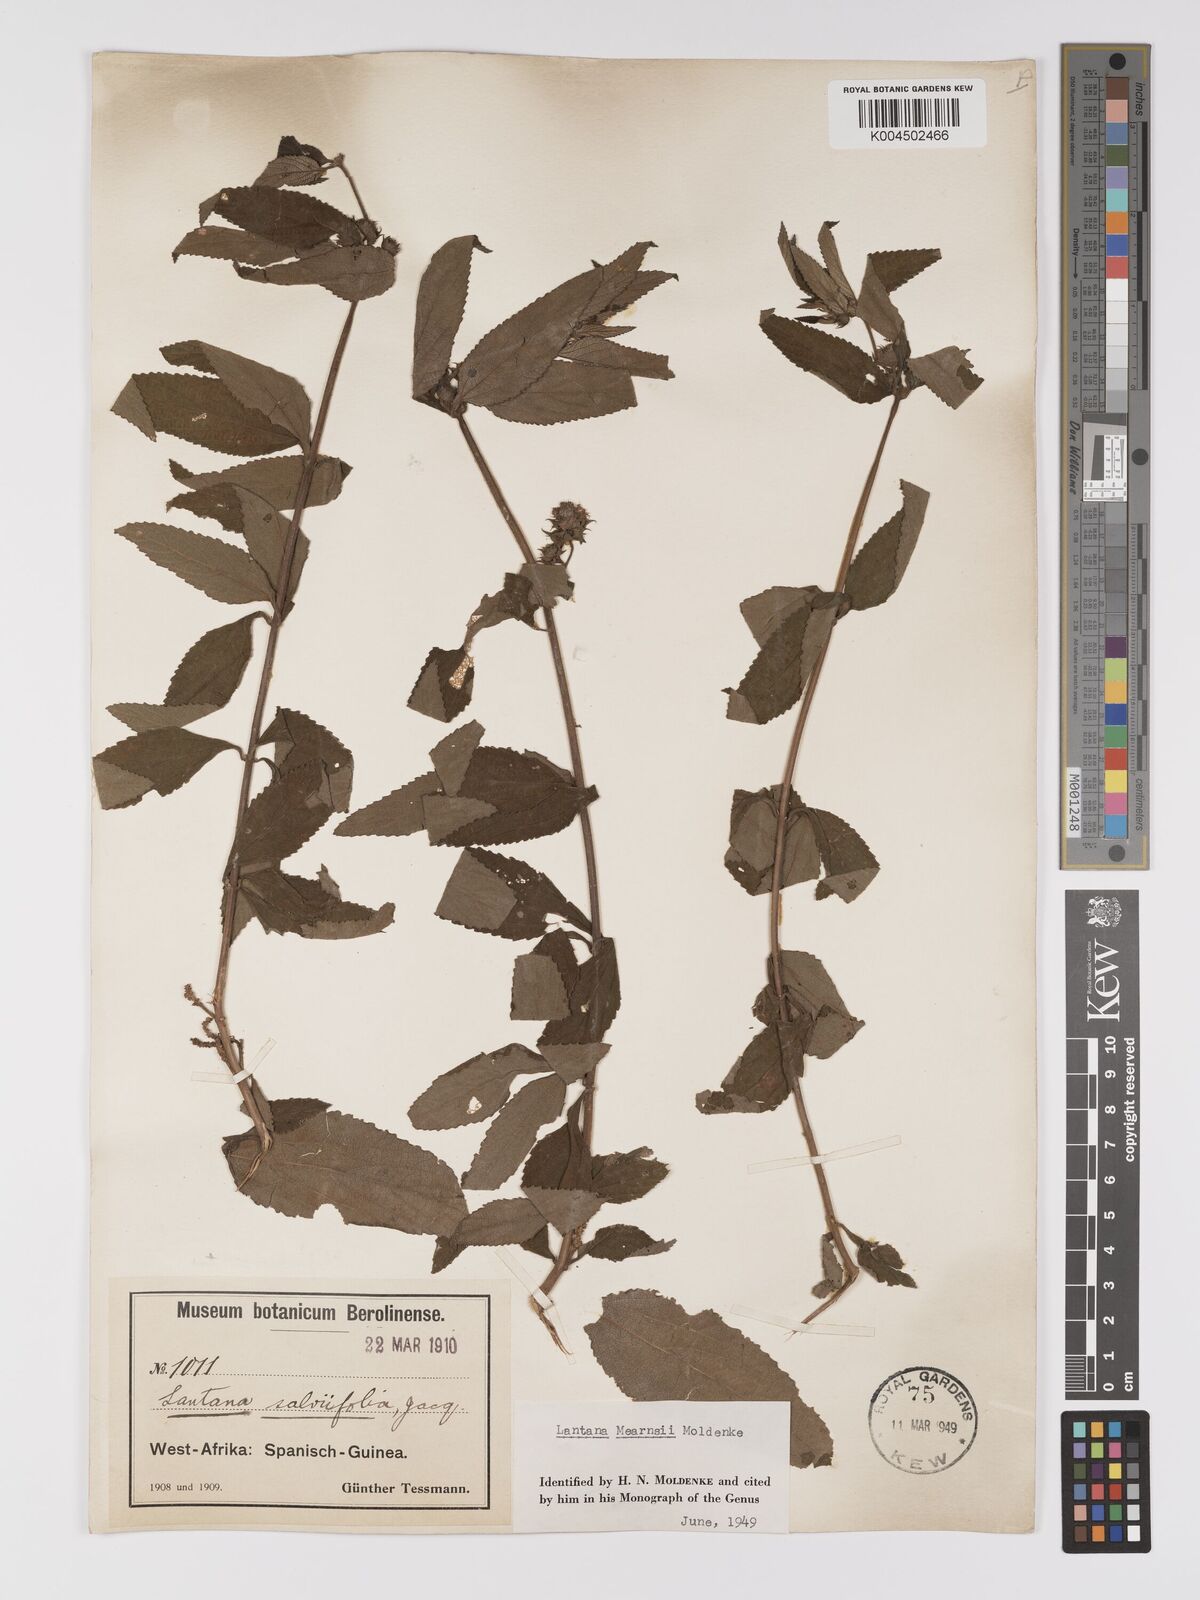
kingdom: Plantae
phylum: Tracheophyta
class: Magnoliopsida
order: Lamiales
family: Verbenaceae
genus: Lantana
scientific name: Lantana
